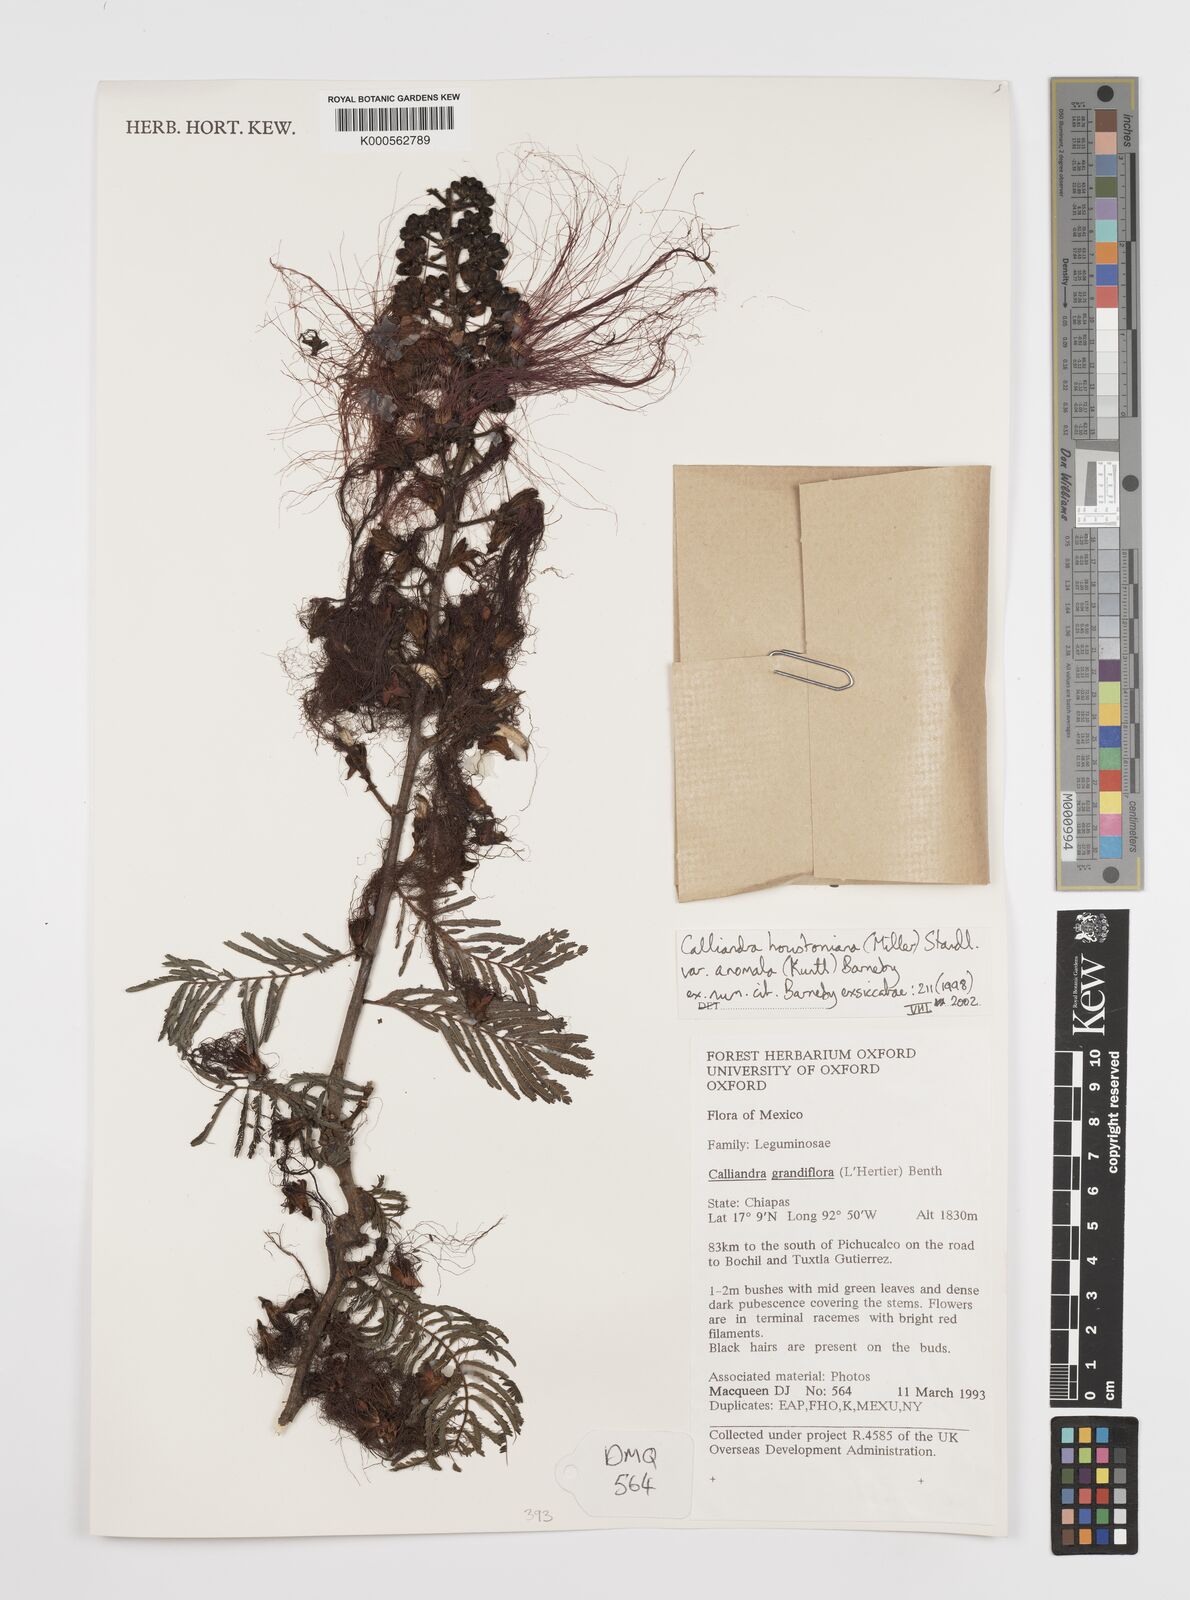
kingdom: Plantae
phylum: Tracheophyta
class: Magnoliopsida
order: Fabales
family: Fabaceae
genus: Calliandra
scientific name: Calliandra houstoniana
